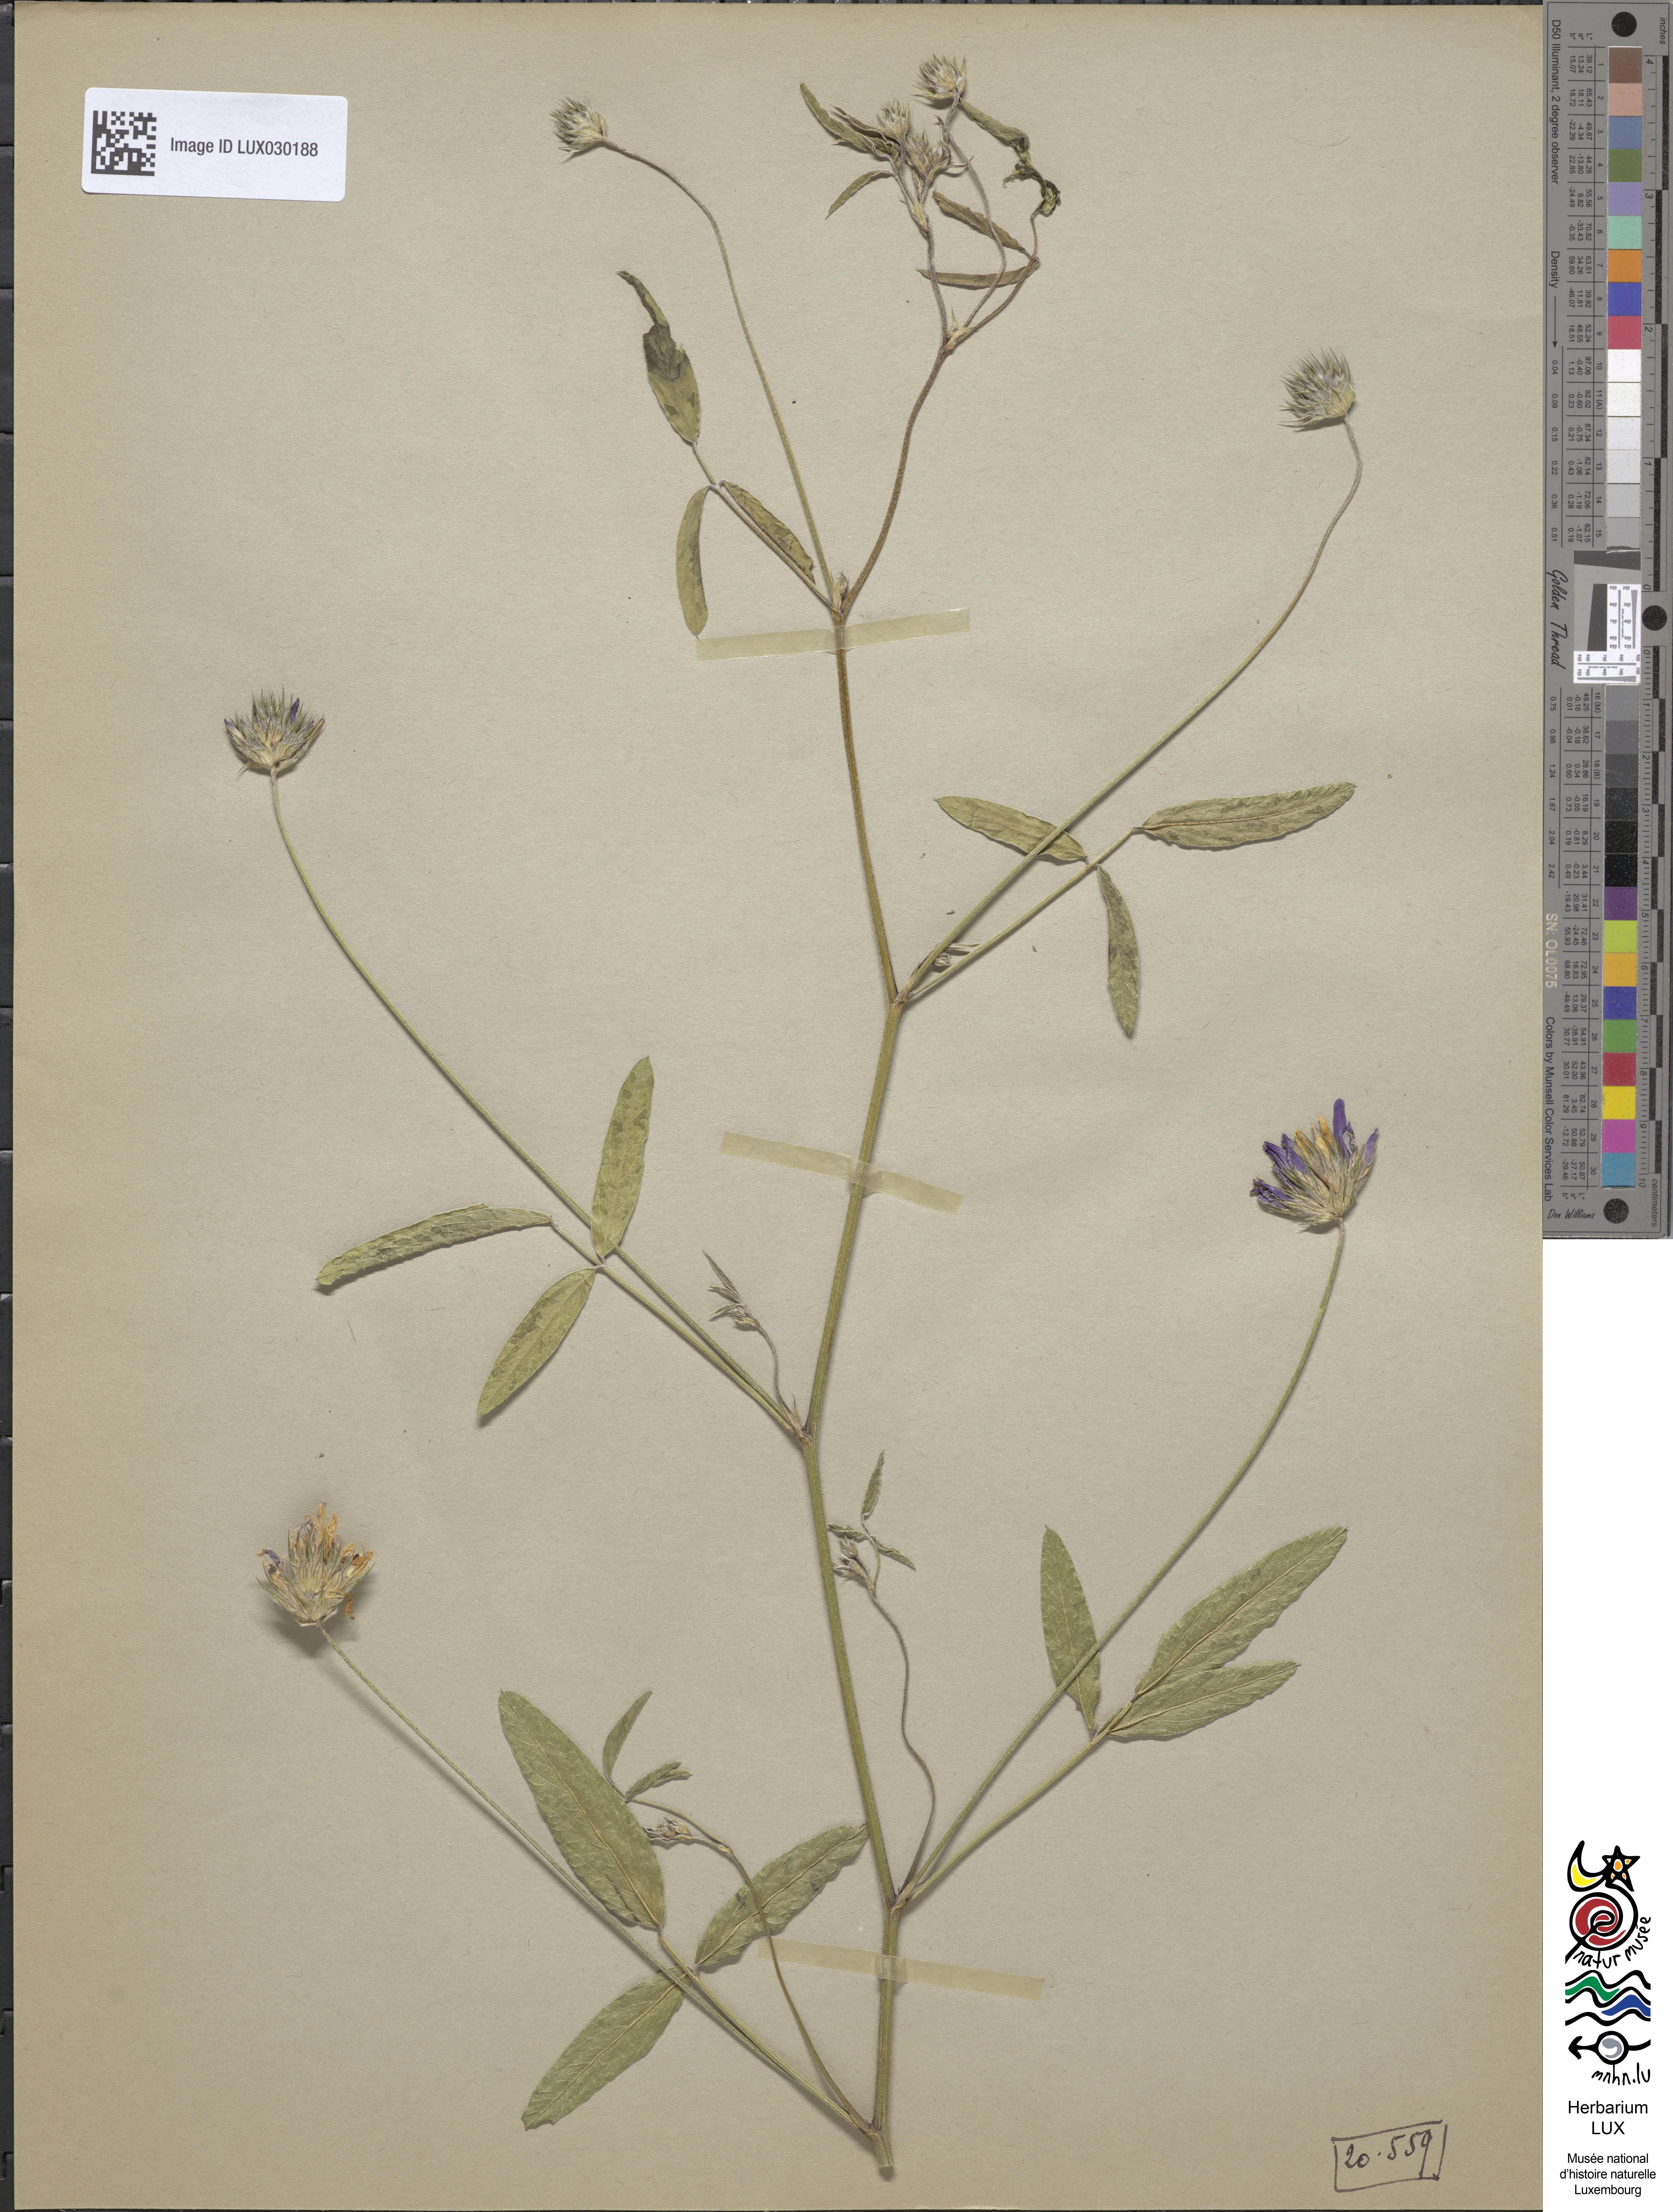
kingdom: Plantae
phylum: Tracheophyta
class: Magnoliopsida
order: Fabales
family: Fabaceae
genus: Bituminaria
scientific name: Bituminaria bituminosa
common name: Arabian pea
